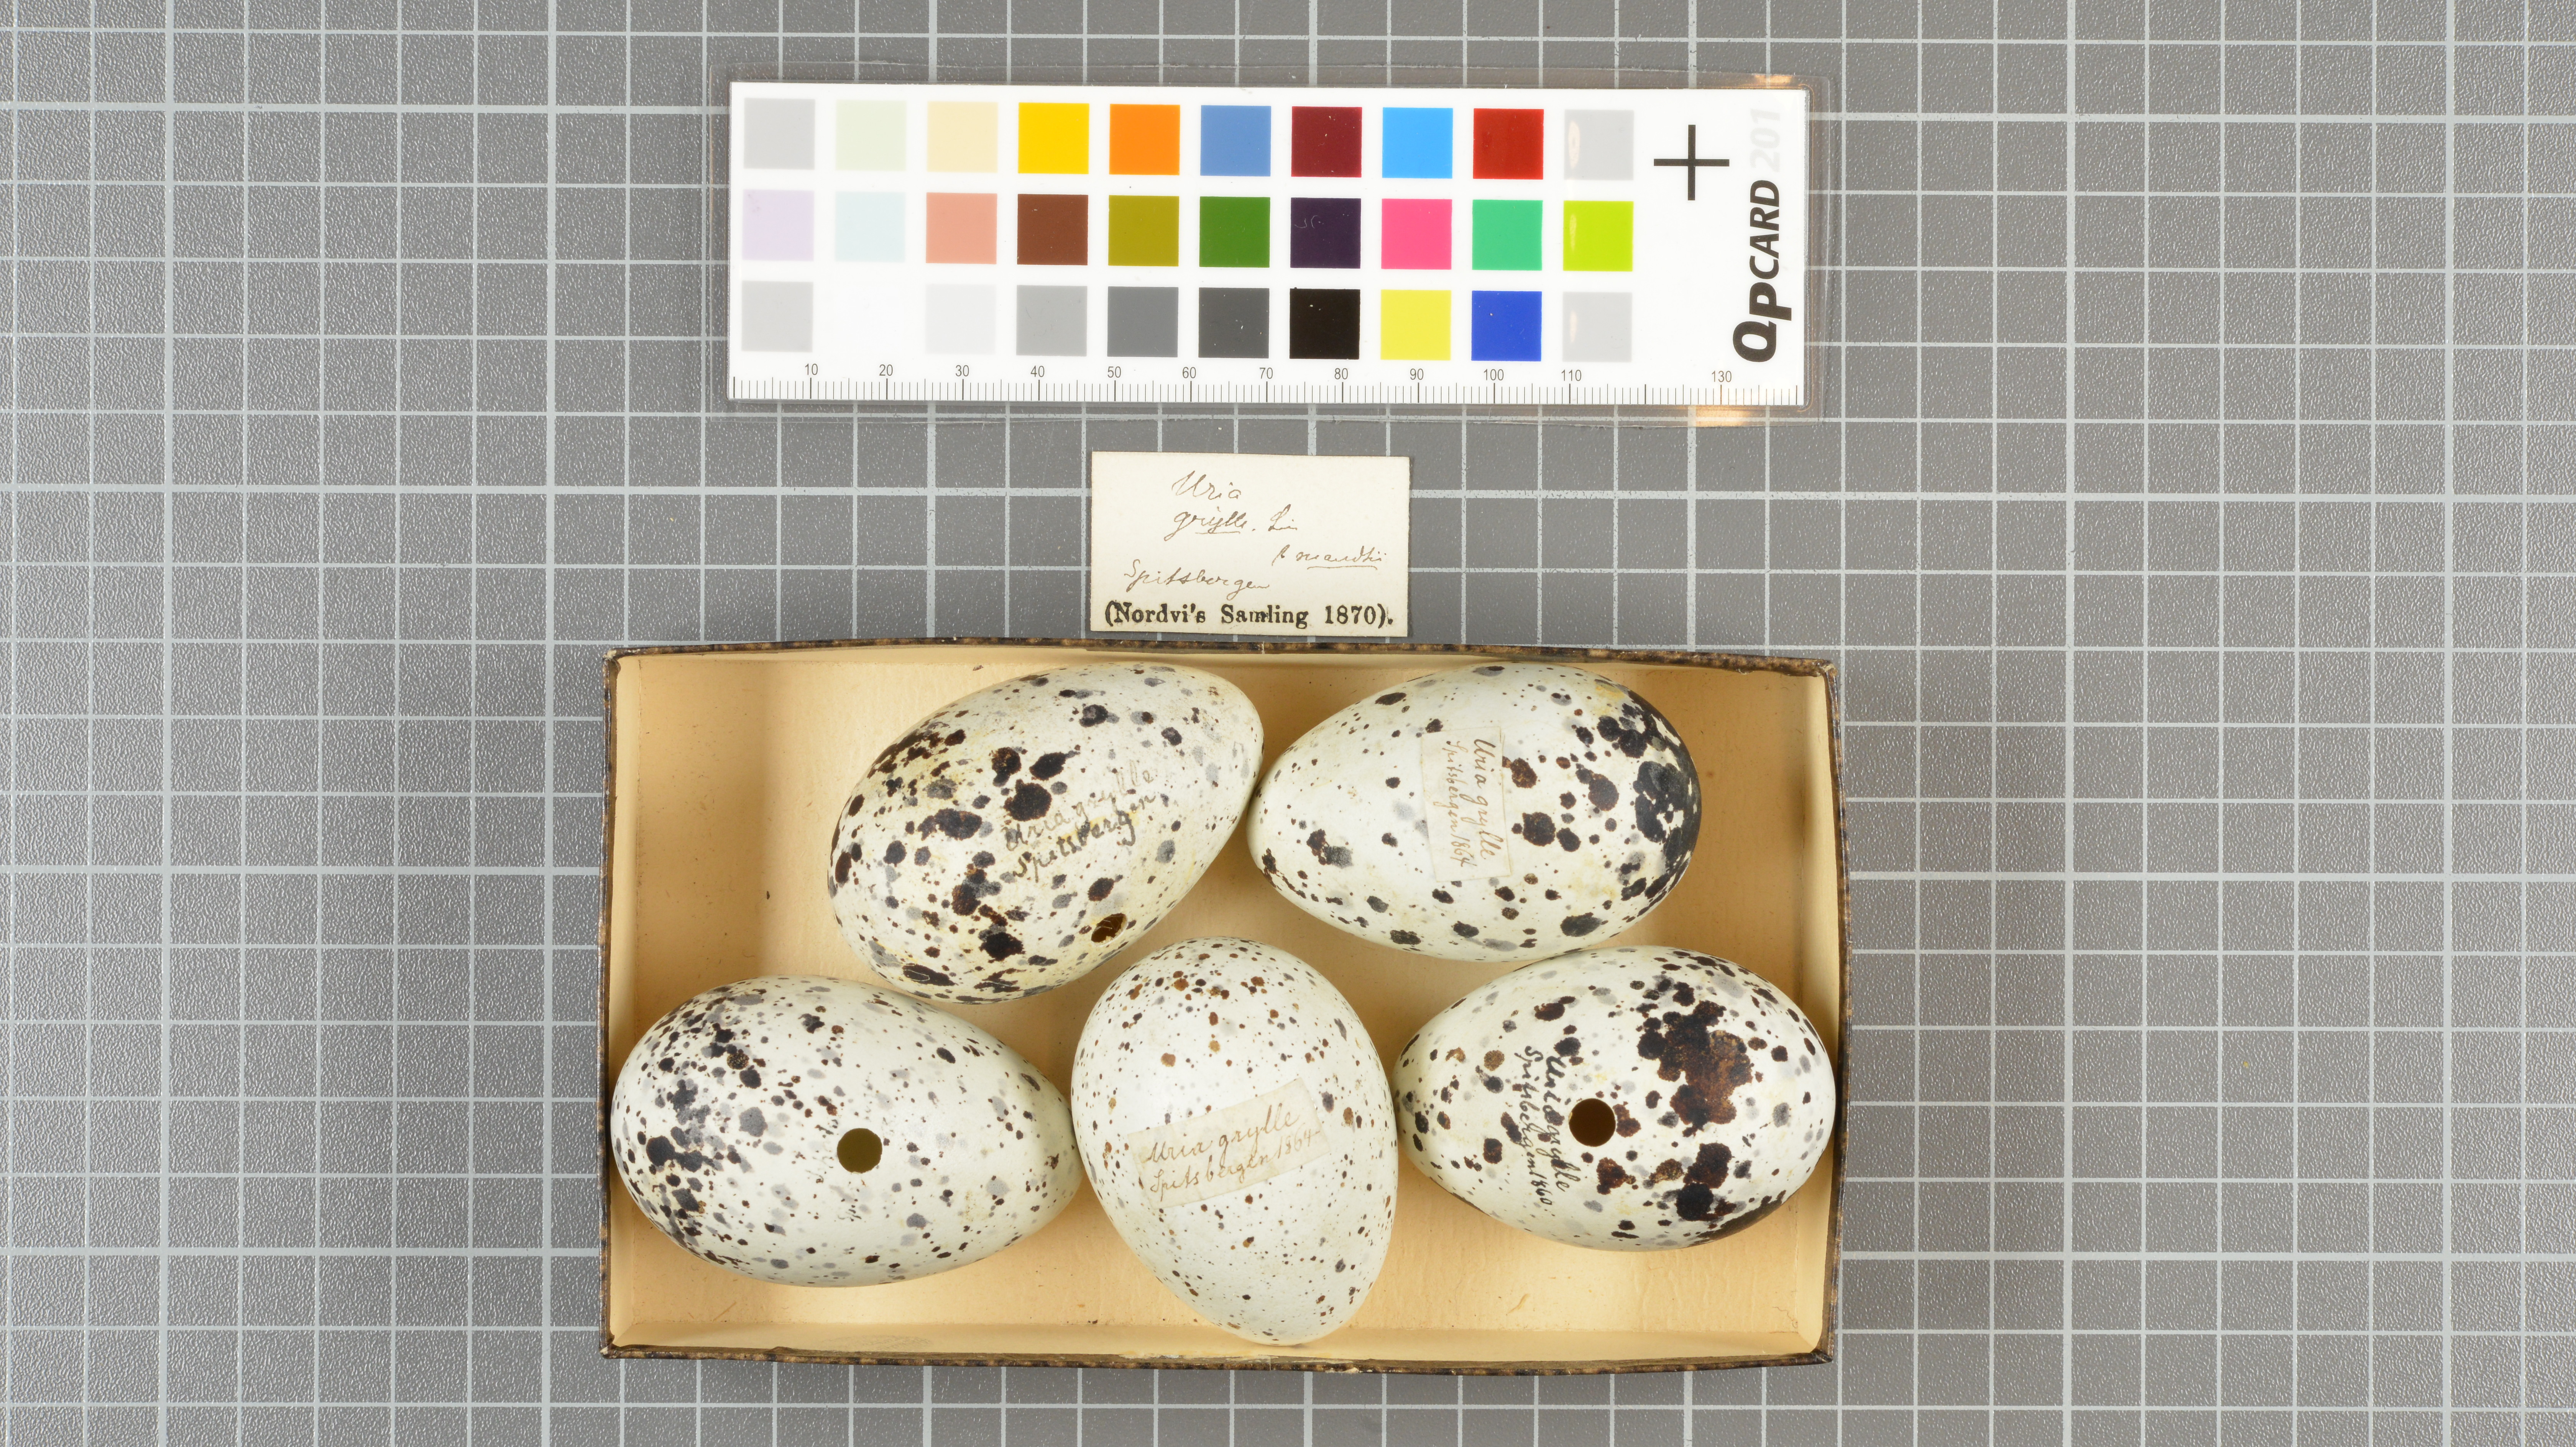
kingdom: Animalia
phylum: Chordata
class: Aves
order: Charadriiformes
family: Alcidae
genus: Cepphus
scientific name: Cepphus grylle
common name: Black guillemot
